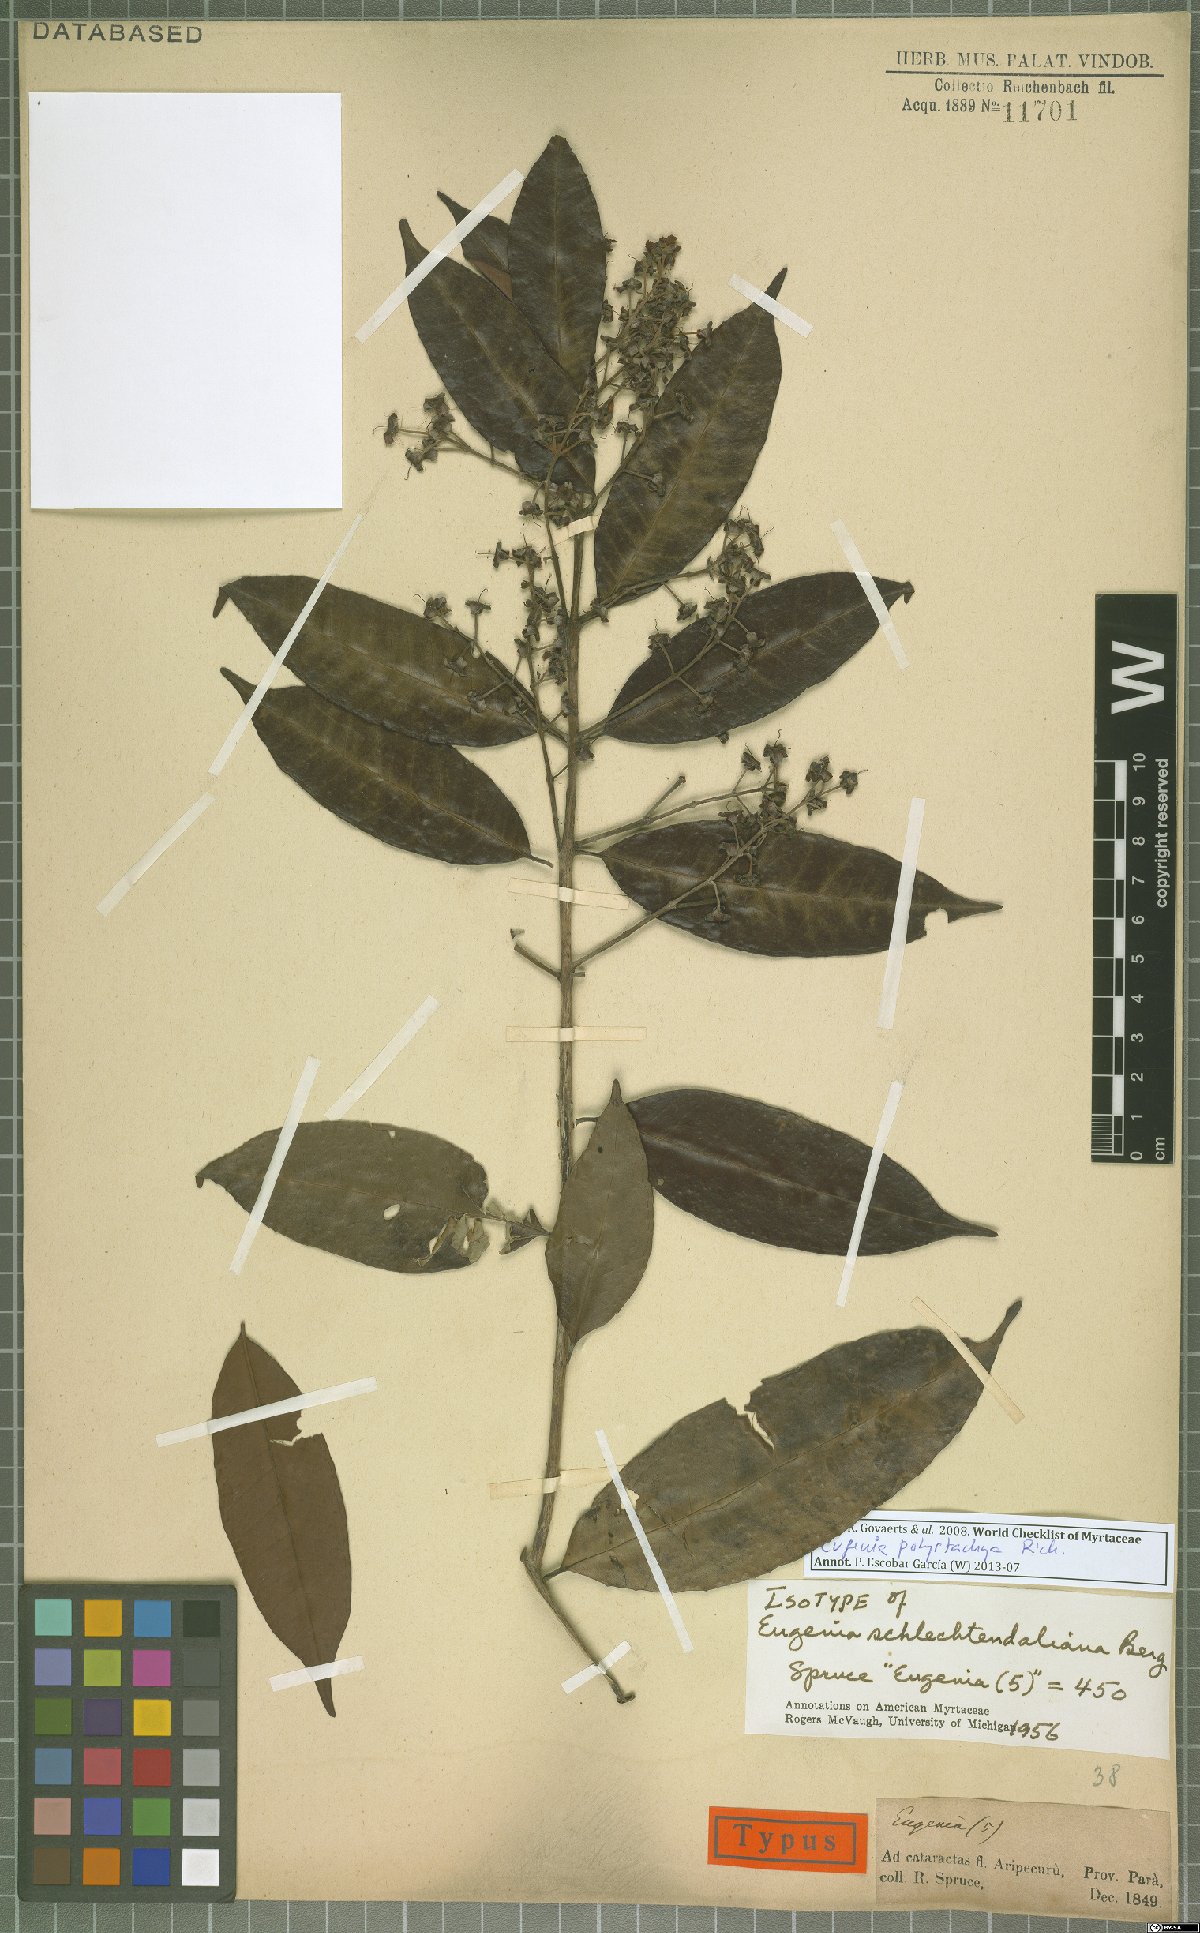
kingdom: Plantae
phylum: Tracheophyta
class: Magnoliopsida
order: Myrtales
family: Myrtaceae
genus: Eugenia
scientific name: Eugenia polystachya
